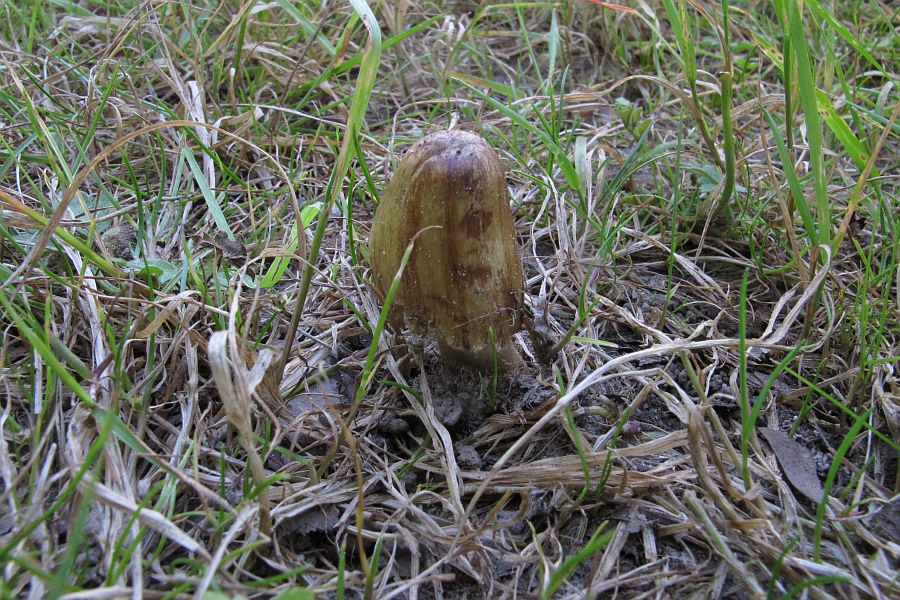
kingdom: Fungi
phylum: Basidiomycota
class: Agaricomycetes
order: Agaricales
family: Inocybaceae
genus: Pseudosperma
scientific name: Pseudosperma rimosum
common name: gulbladet trævlhat
